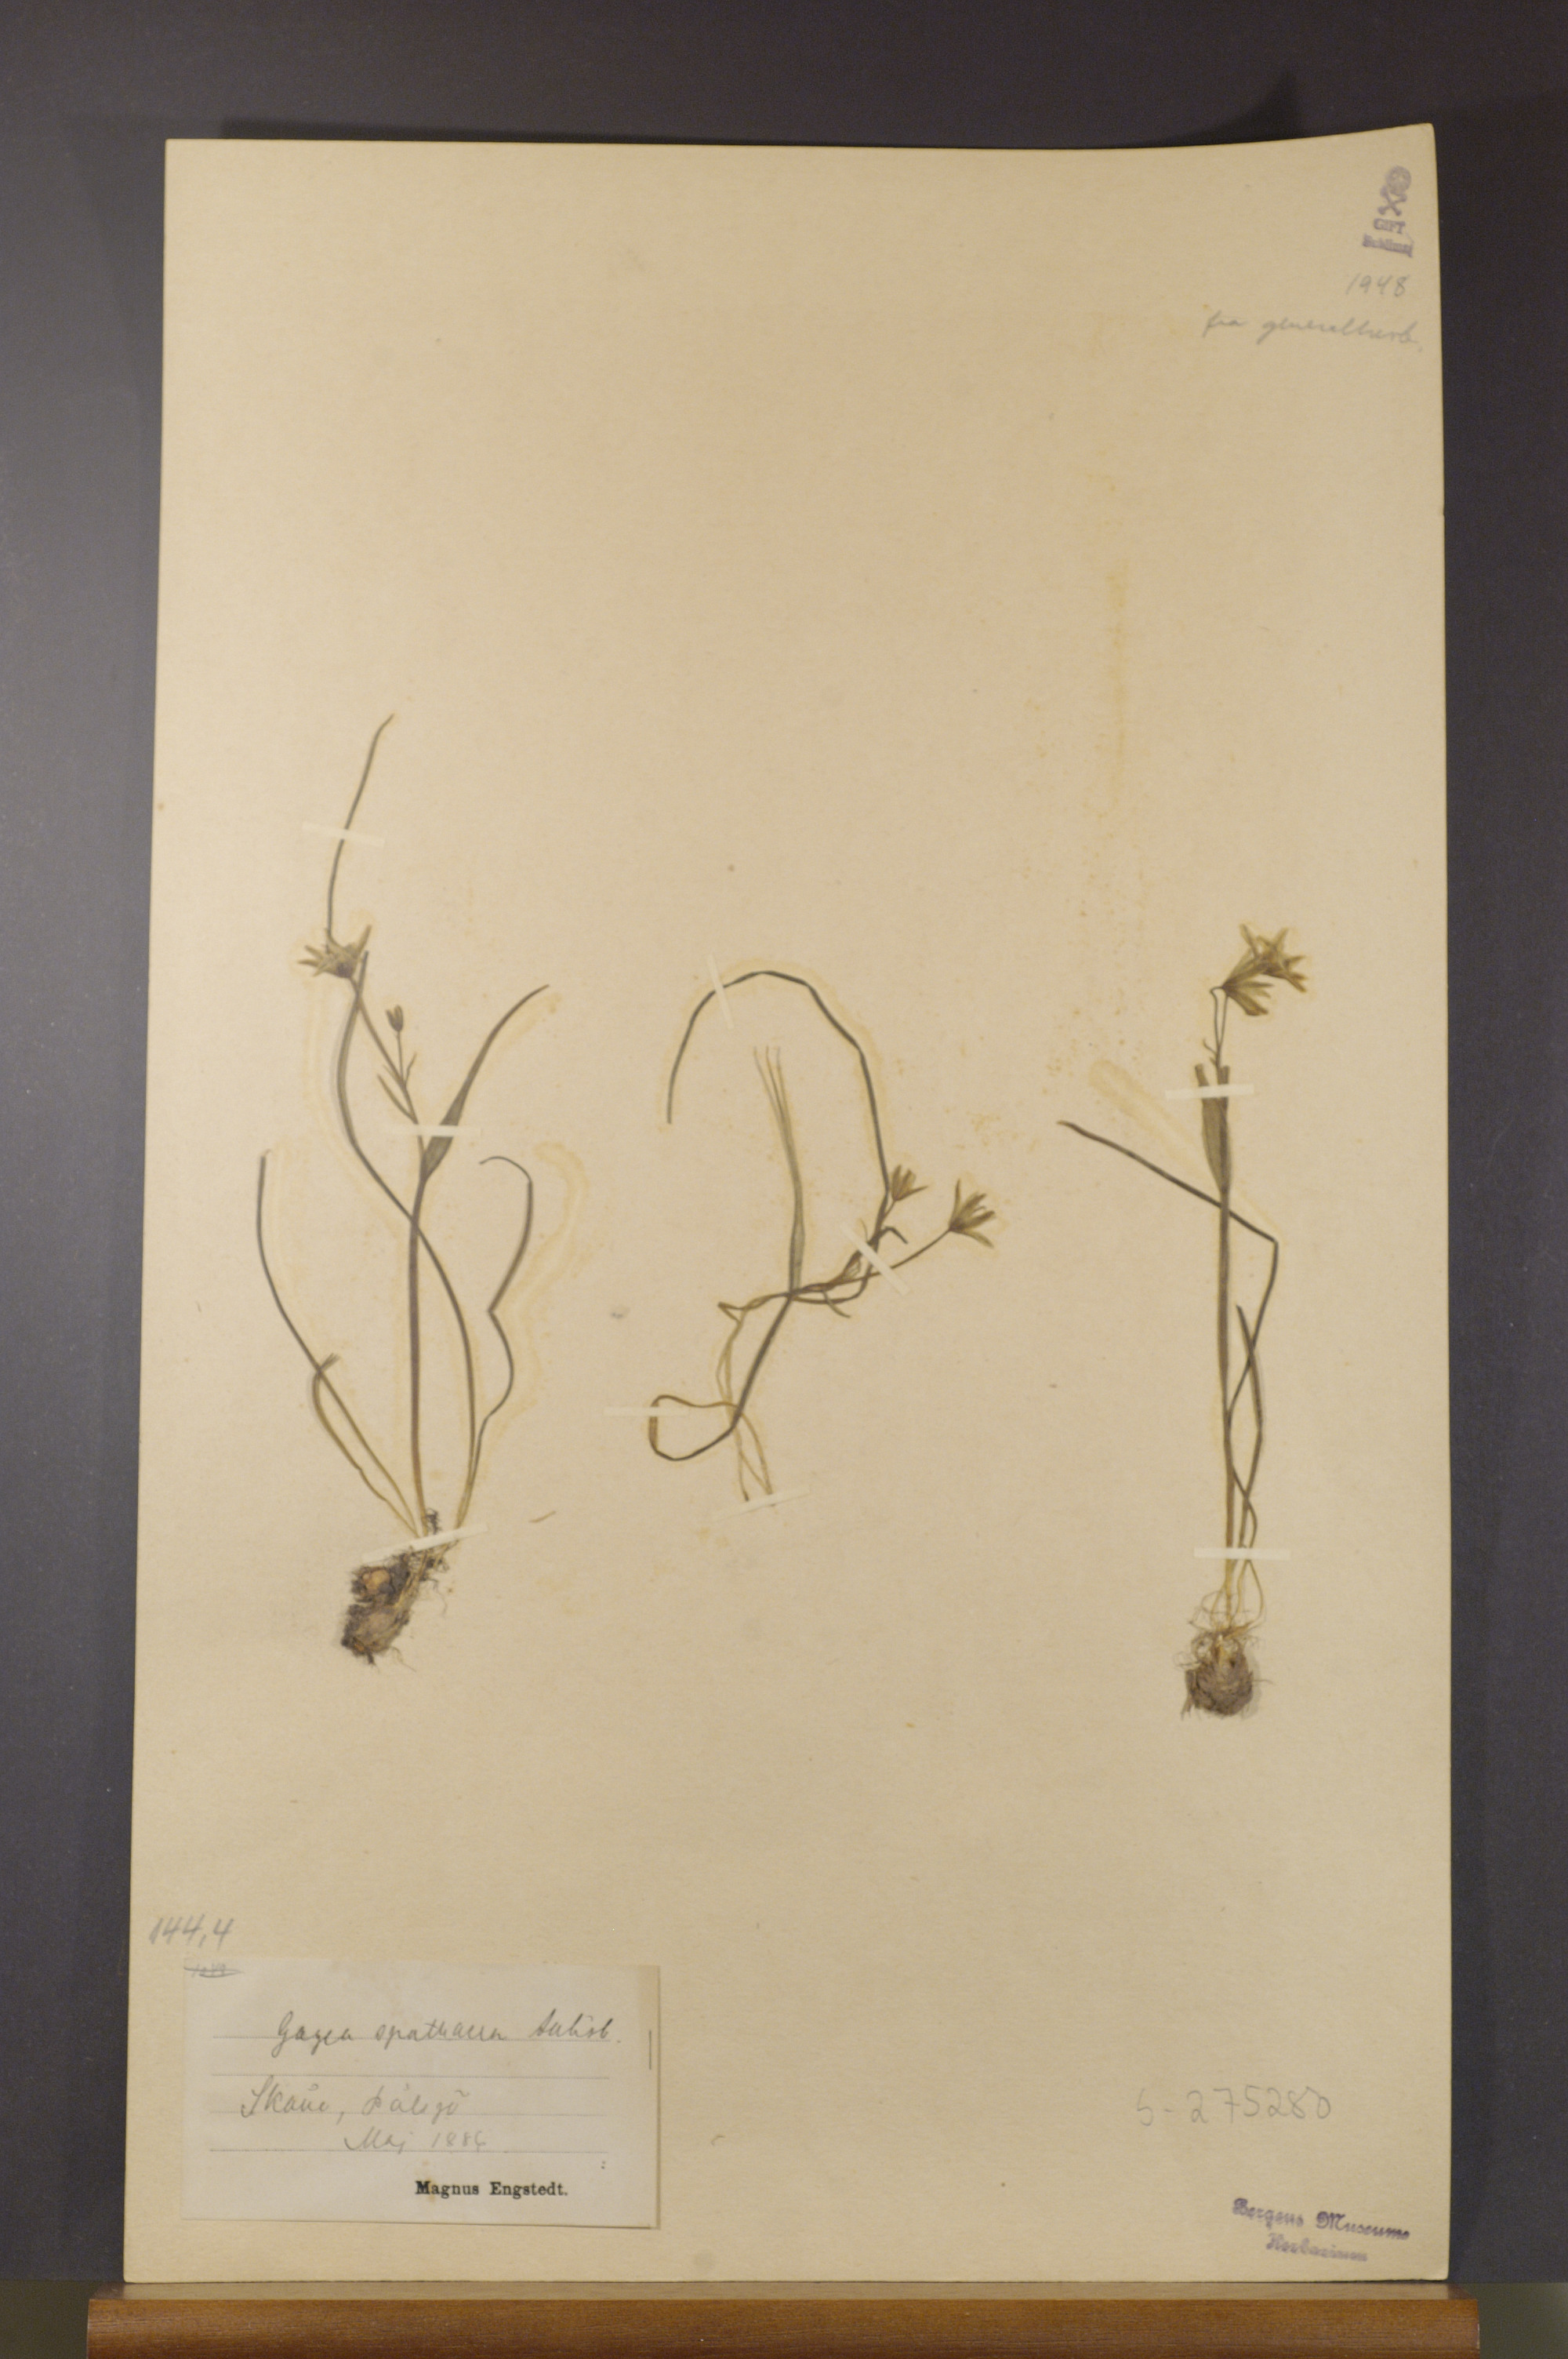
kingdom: Plantae
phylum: Tracheophyta
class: Liliopsida
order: Liliales
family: Liliaceae
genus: Gagea
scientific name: Gagea spathacea
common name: Belgian gagea
